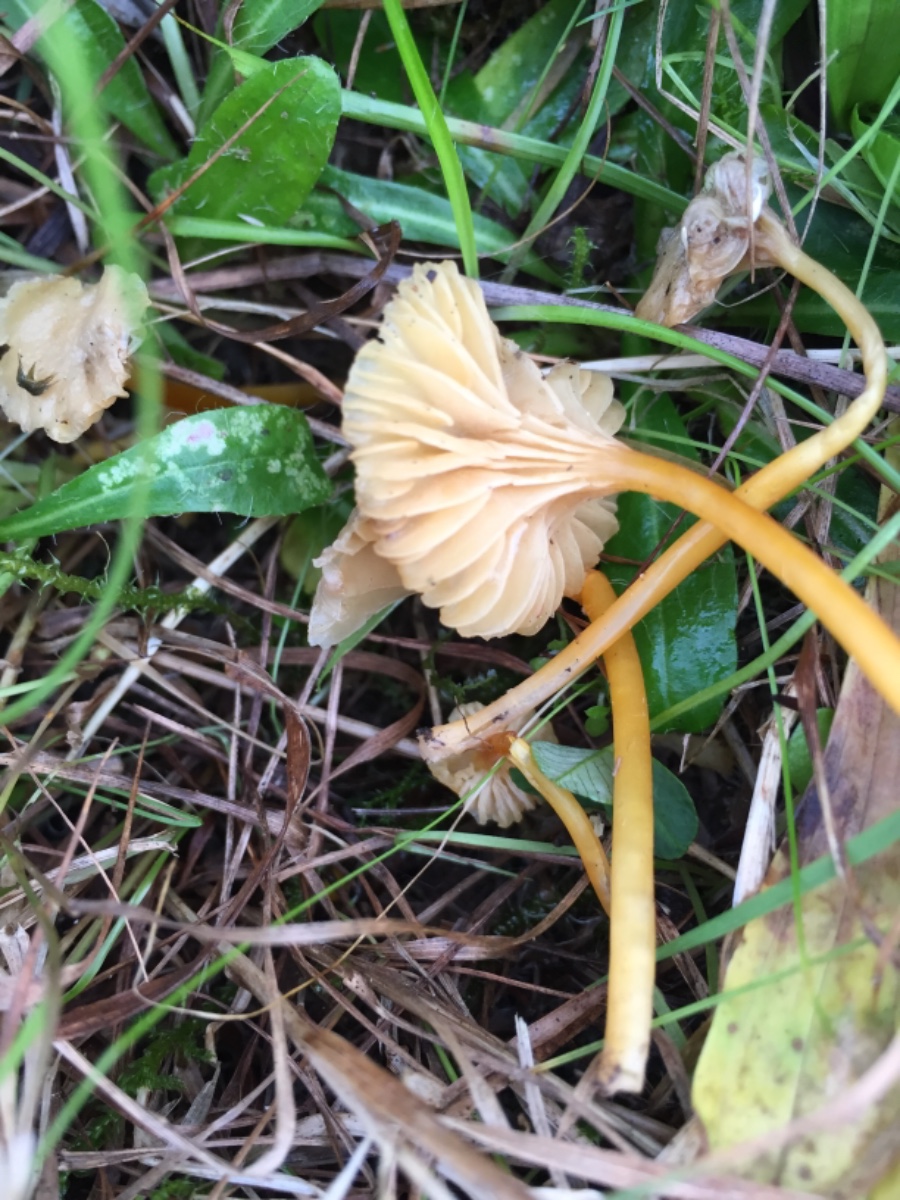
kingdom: Fungi
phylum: Basidiomycota
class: Agaricomycetes
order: Agaricales
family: Hygrophoraceae
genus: Hygrocybe
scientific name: Hygrocybe cantharellus
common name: kantarel-vokshat
